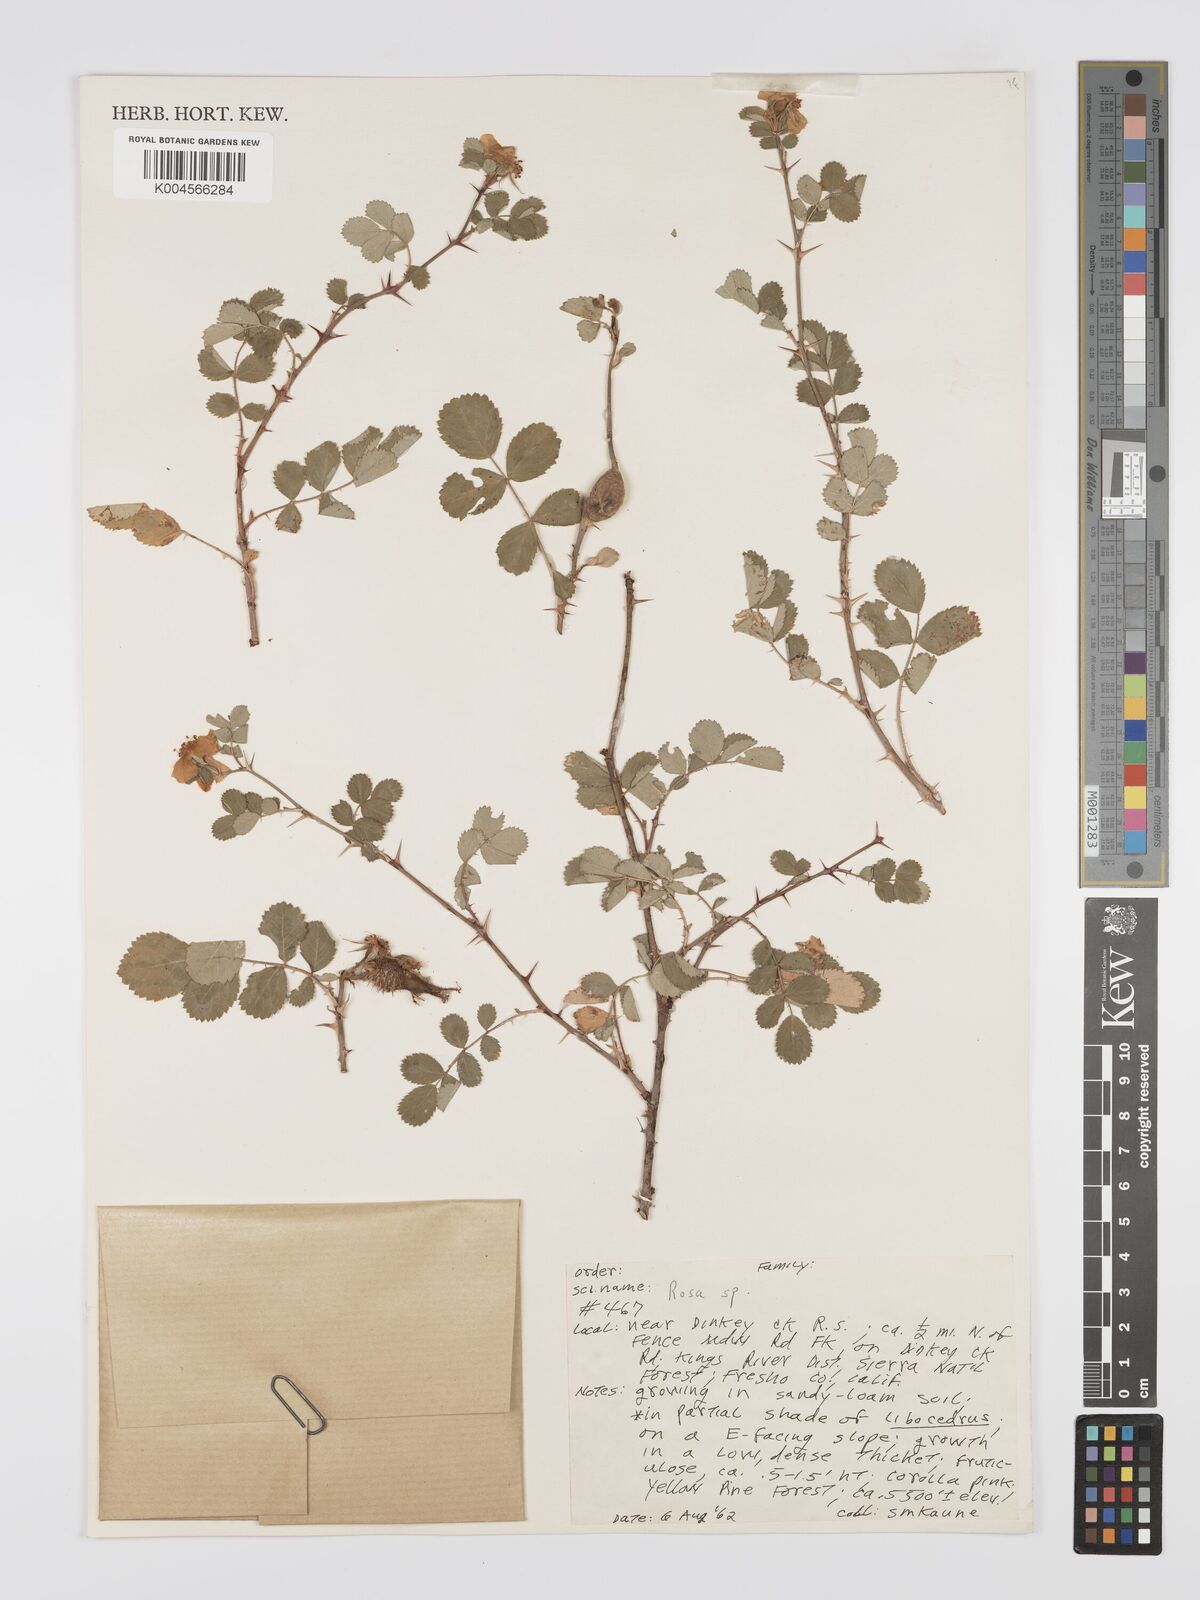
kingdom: Plantae
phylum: Tracheophyta
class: Magnoliopsida
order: Rosales
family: Rosaceae
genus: Rosa
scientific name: Rosa bridgesii
